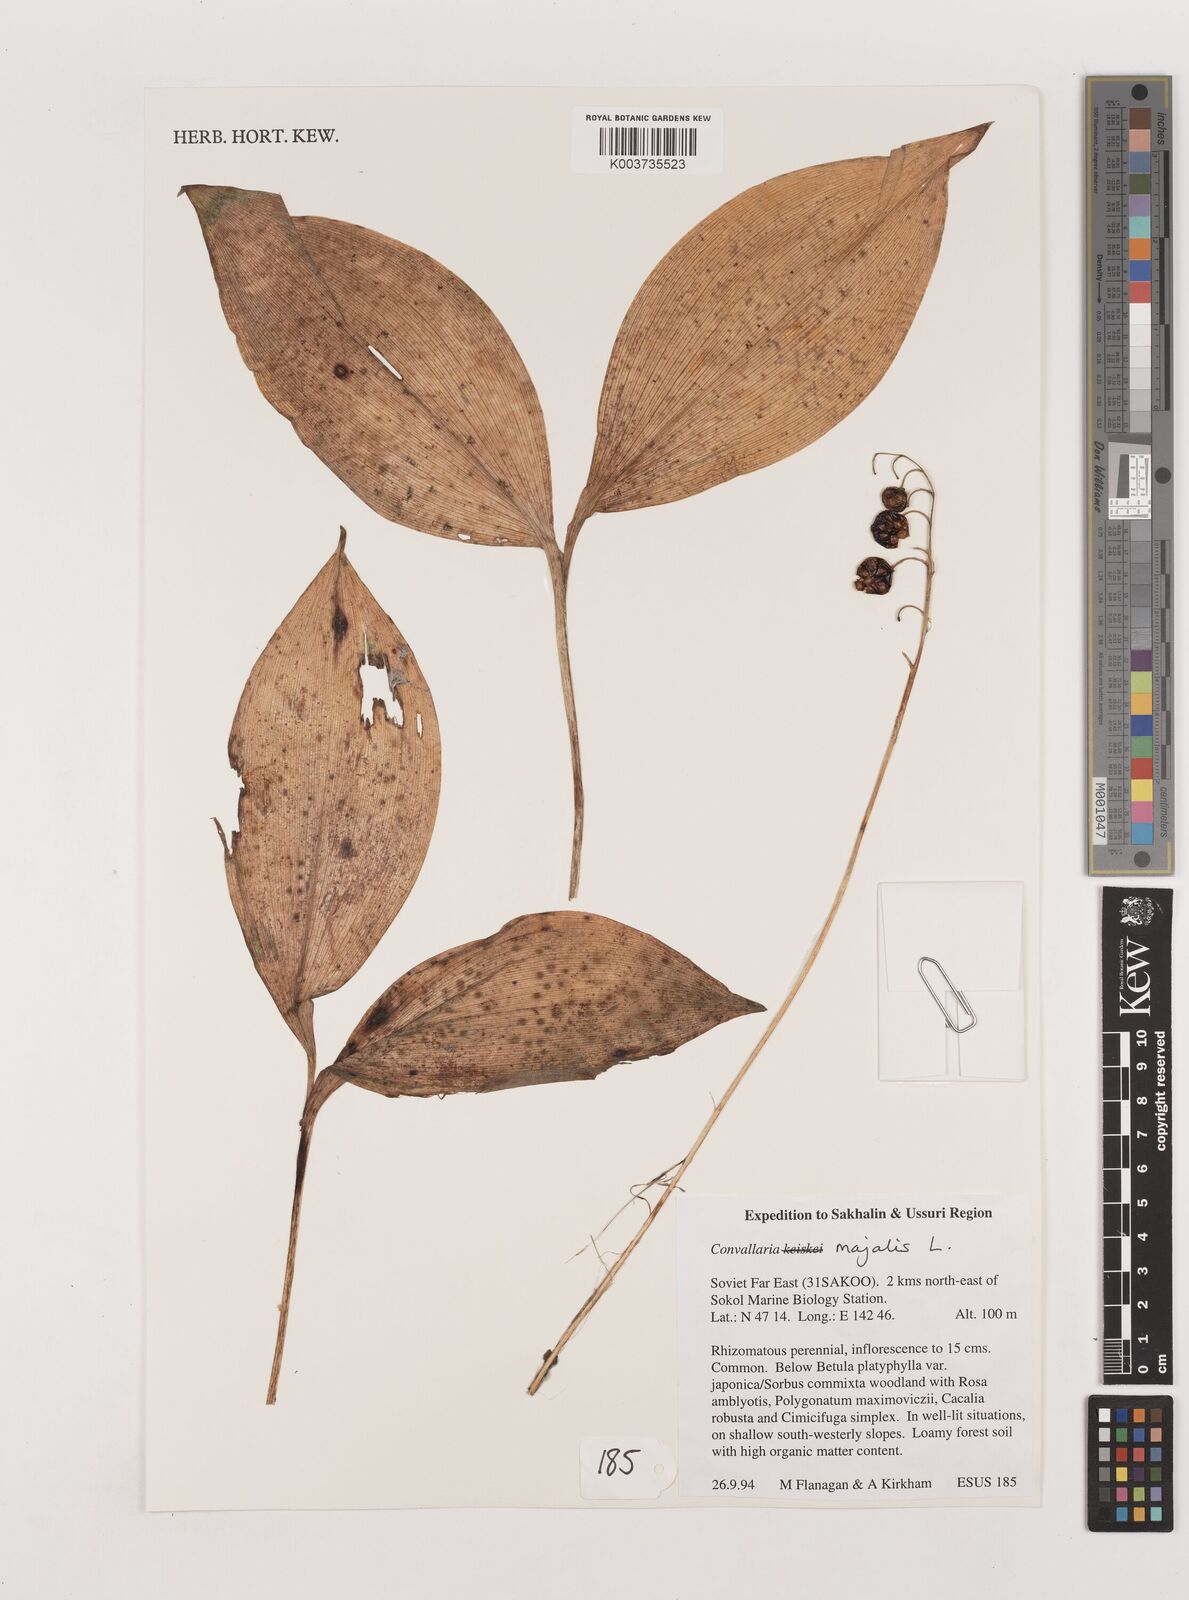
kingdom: Plantae
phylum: Tracheophyta
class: Liliopsida
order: Asparagales
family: Asparagaceae
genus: Convallaria
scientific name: Convallaria majalis
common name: Lily-of-the-valley
